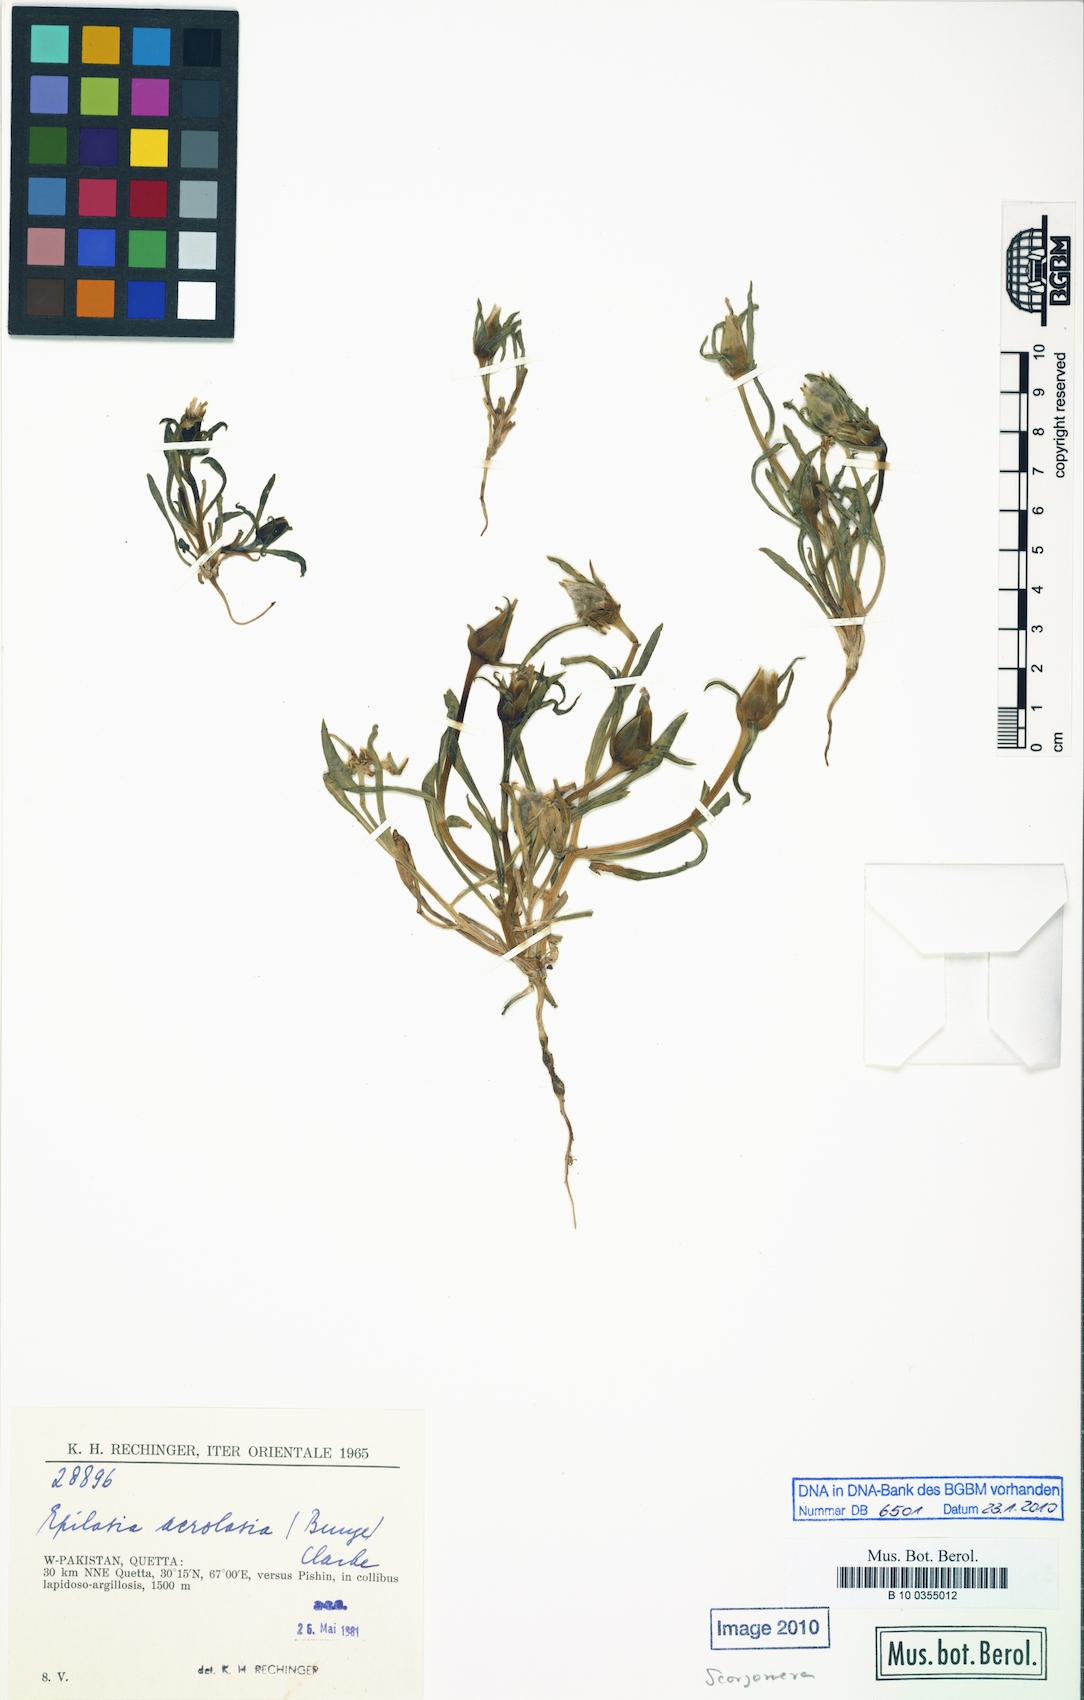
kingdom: Plantae
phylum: Tracheophyta
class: Magnoliopsida
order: Asterales
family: Asteraceae
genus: Epilasia
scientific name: Epilasia acrolasia
